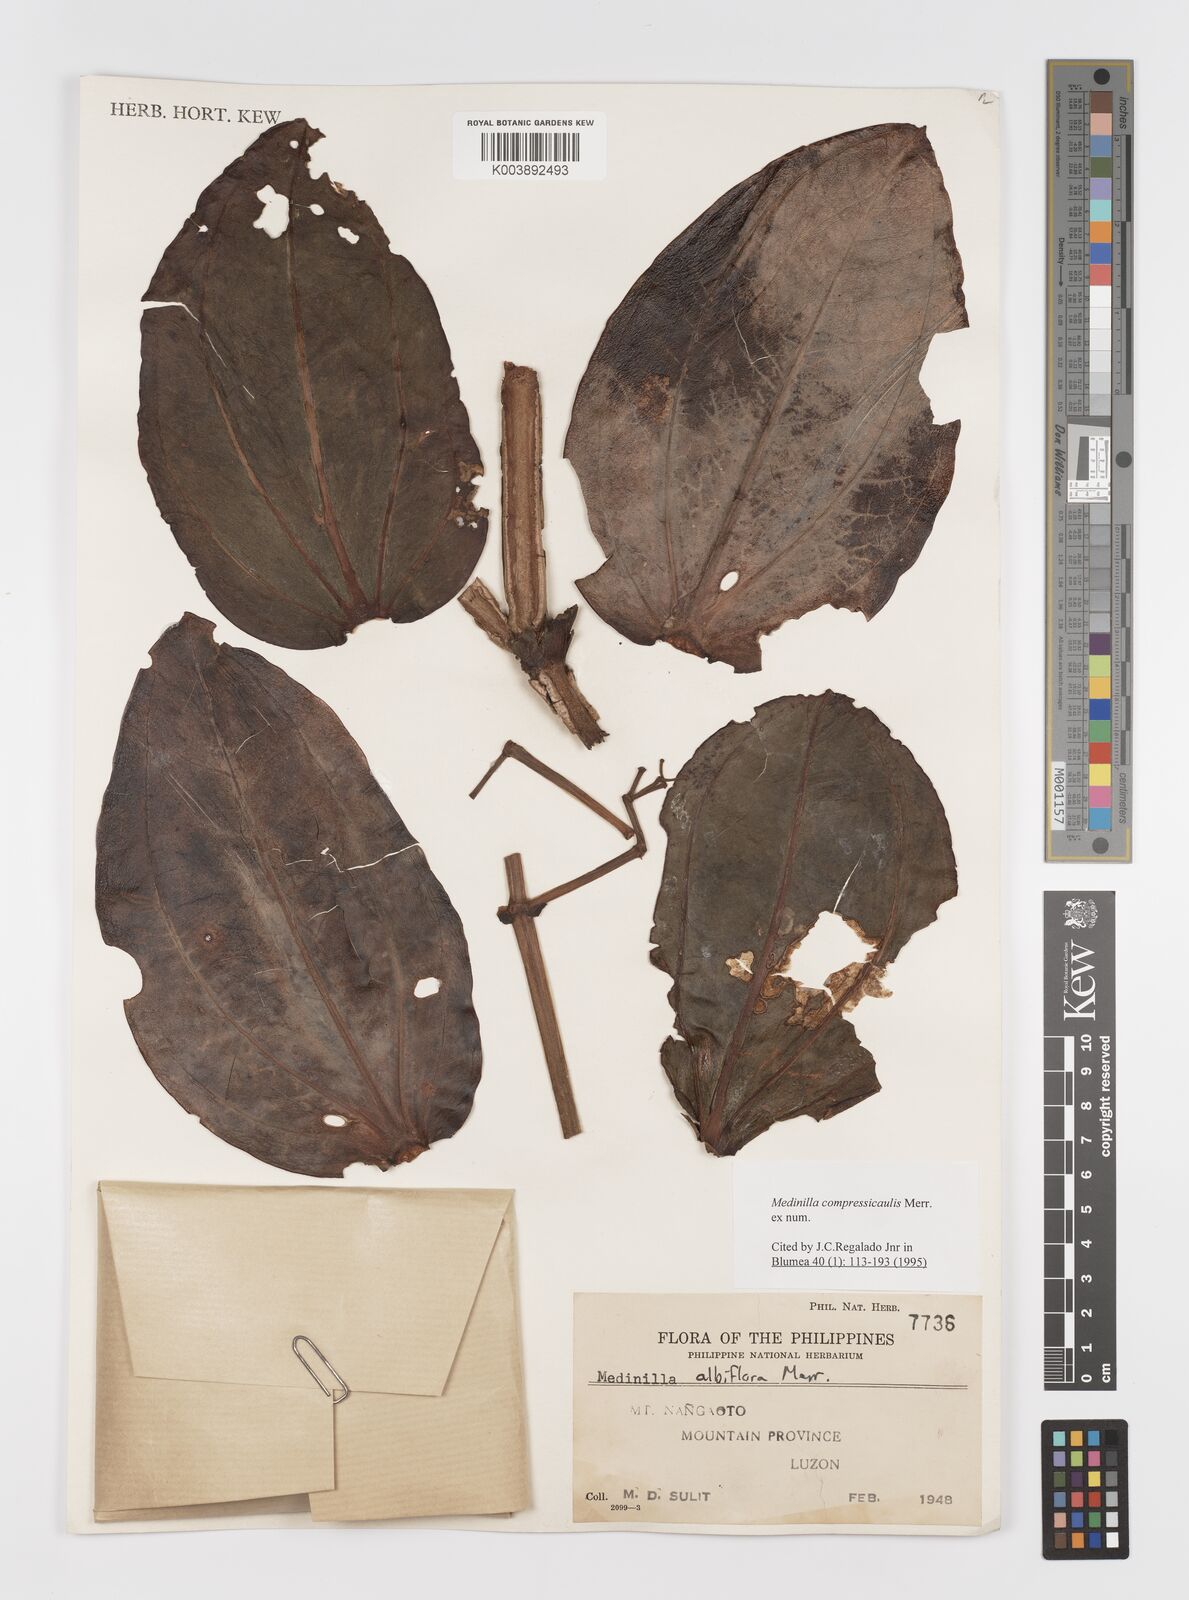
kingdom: Plantae
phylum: Tracheophyta
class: Magnoliopsida
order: Myrtales
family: Melastomataceae
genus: Medinilla
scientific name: Medinilla compressicaulis
